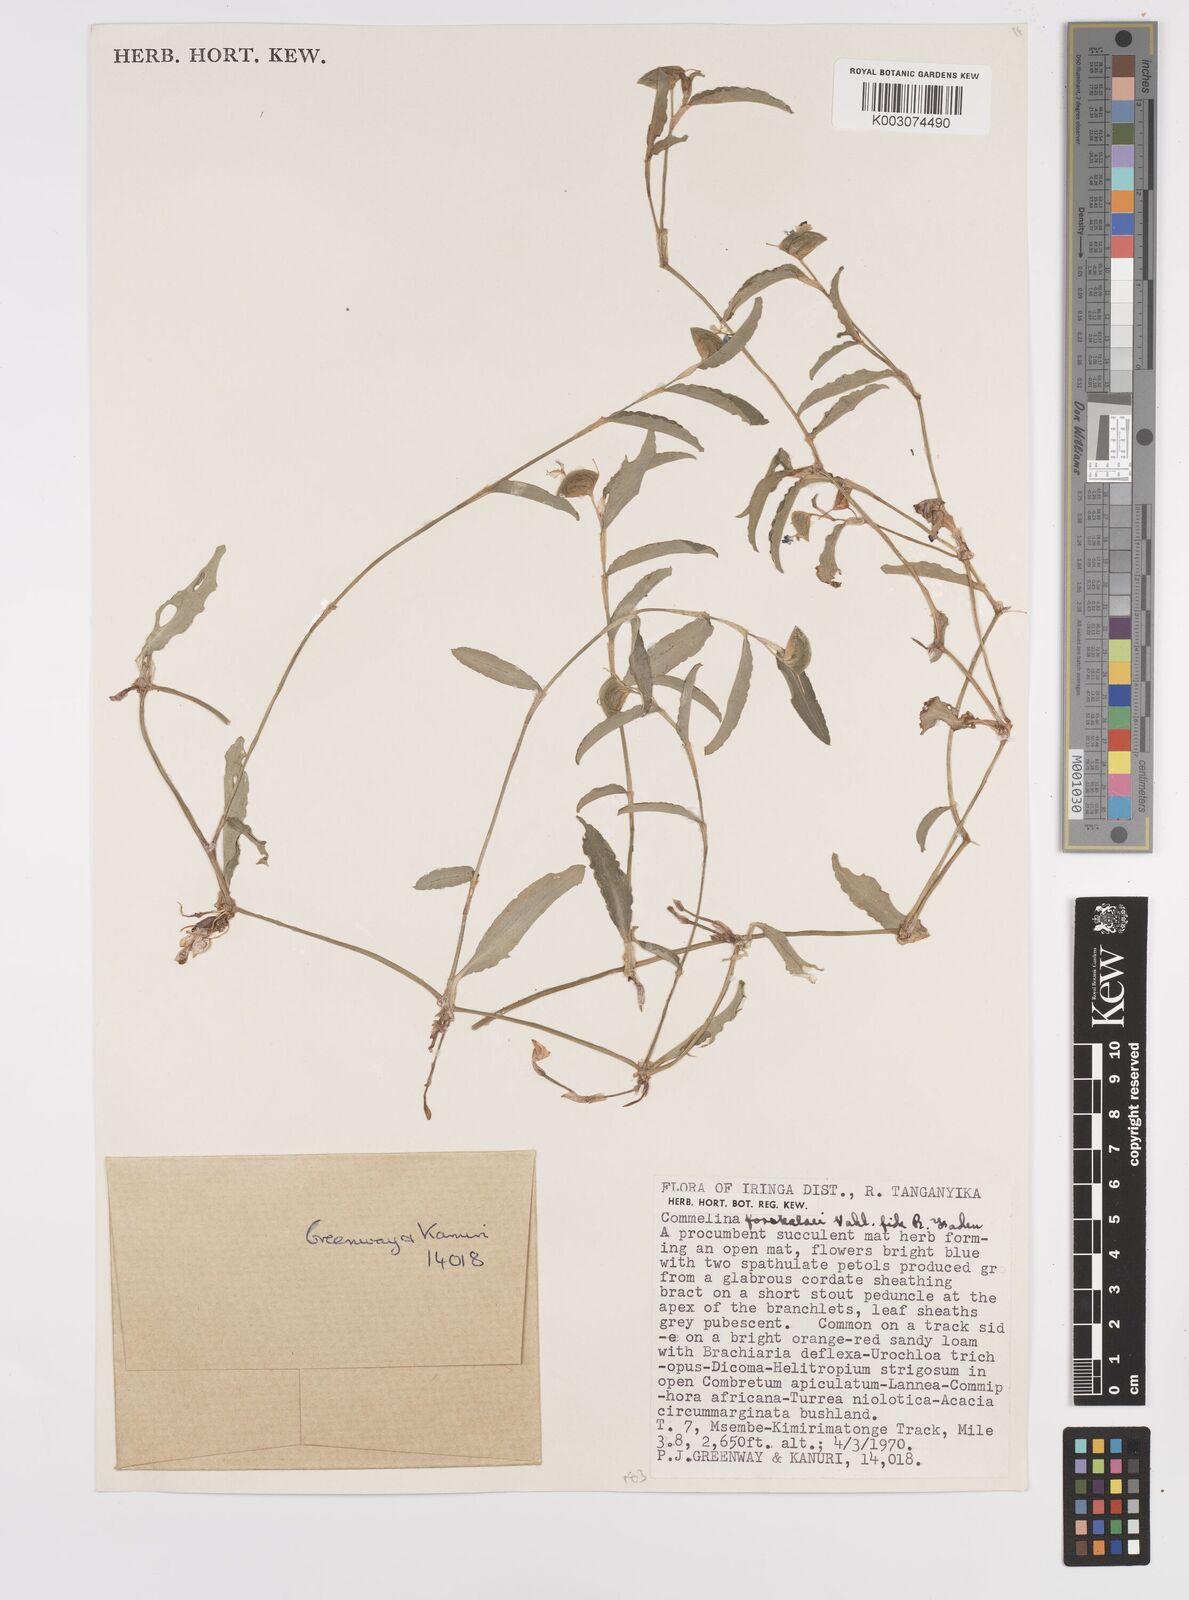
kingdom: Plantae
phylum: Tracheophyta
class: Liliopsida
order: Commelinales
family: Commelinaceae
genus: Commelina
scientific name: Commelina
